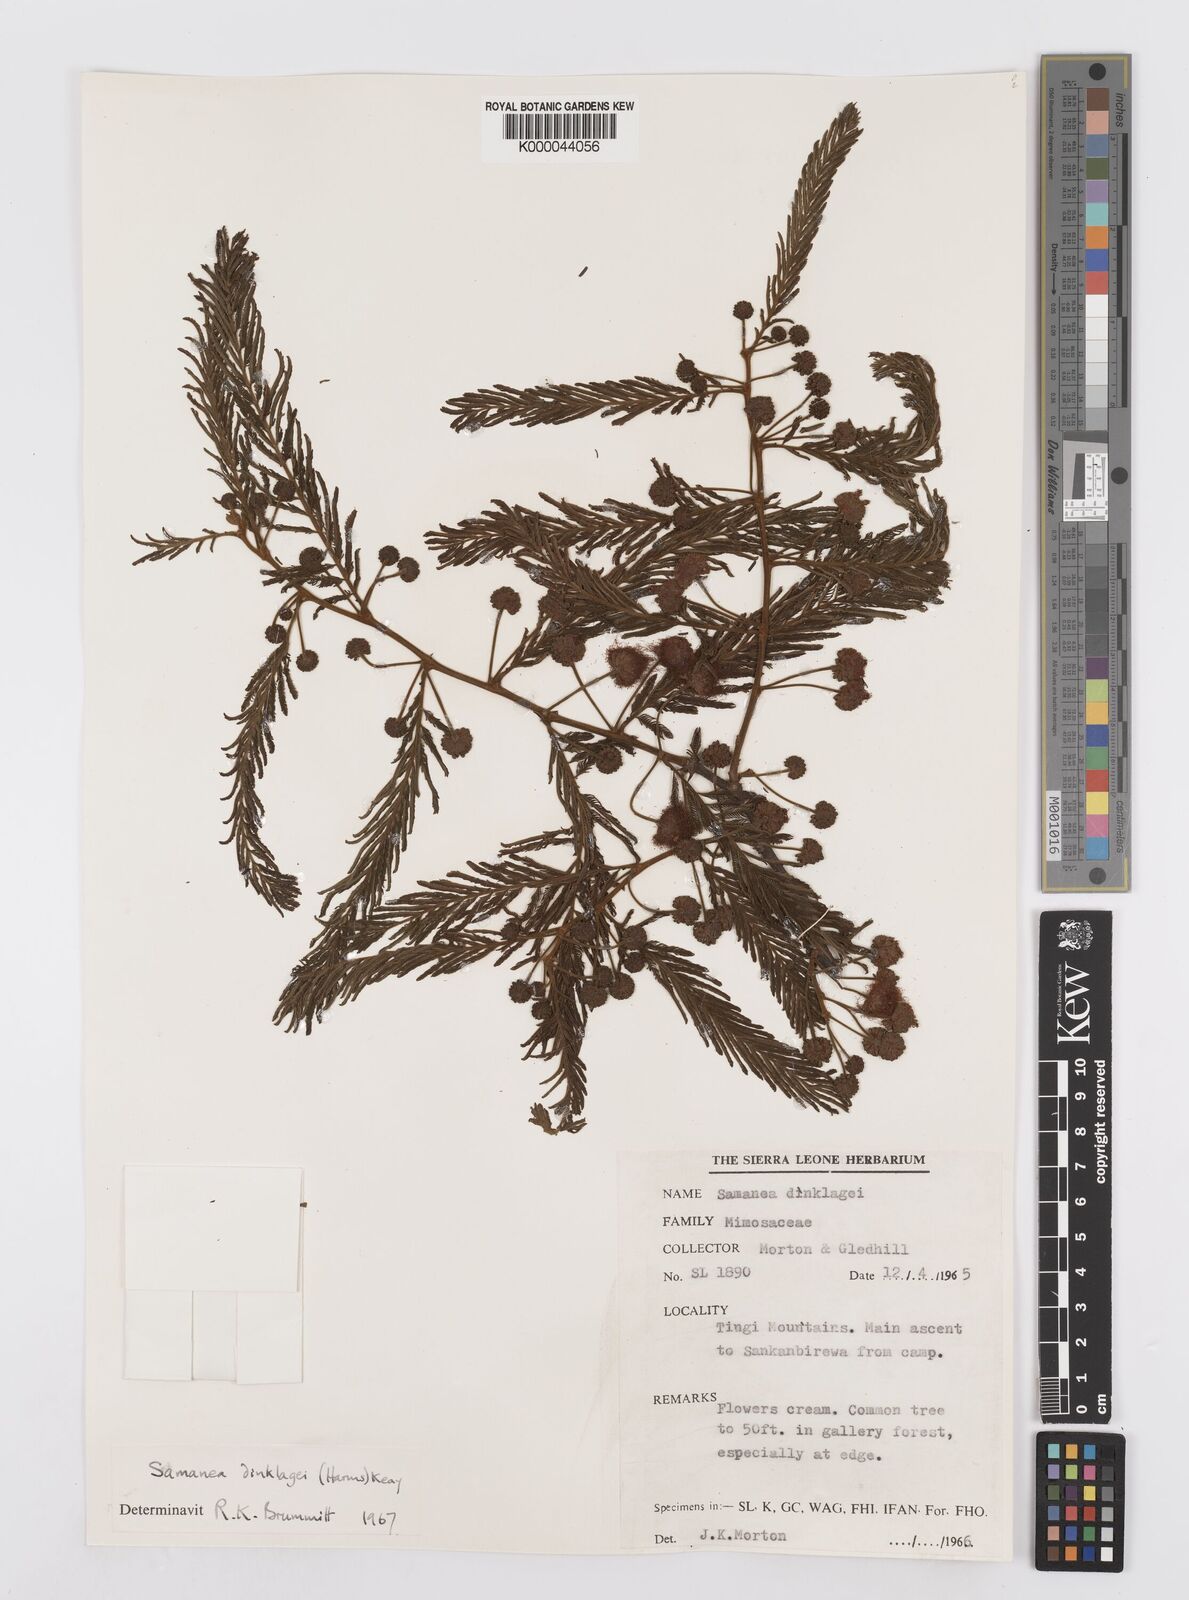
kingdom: Plantae
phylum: Tracheophyta
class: Magnoliopsida
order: Fabales
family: Fabaceae
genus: Albizia
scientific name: Albizia dinklagei
